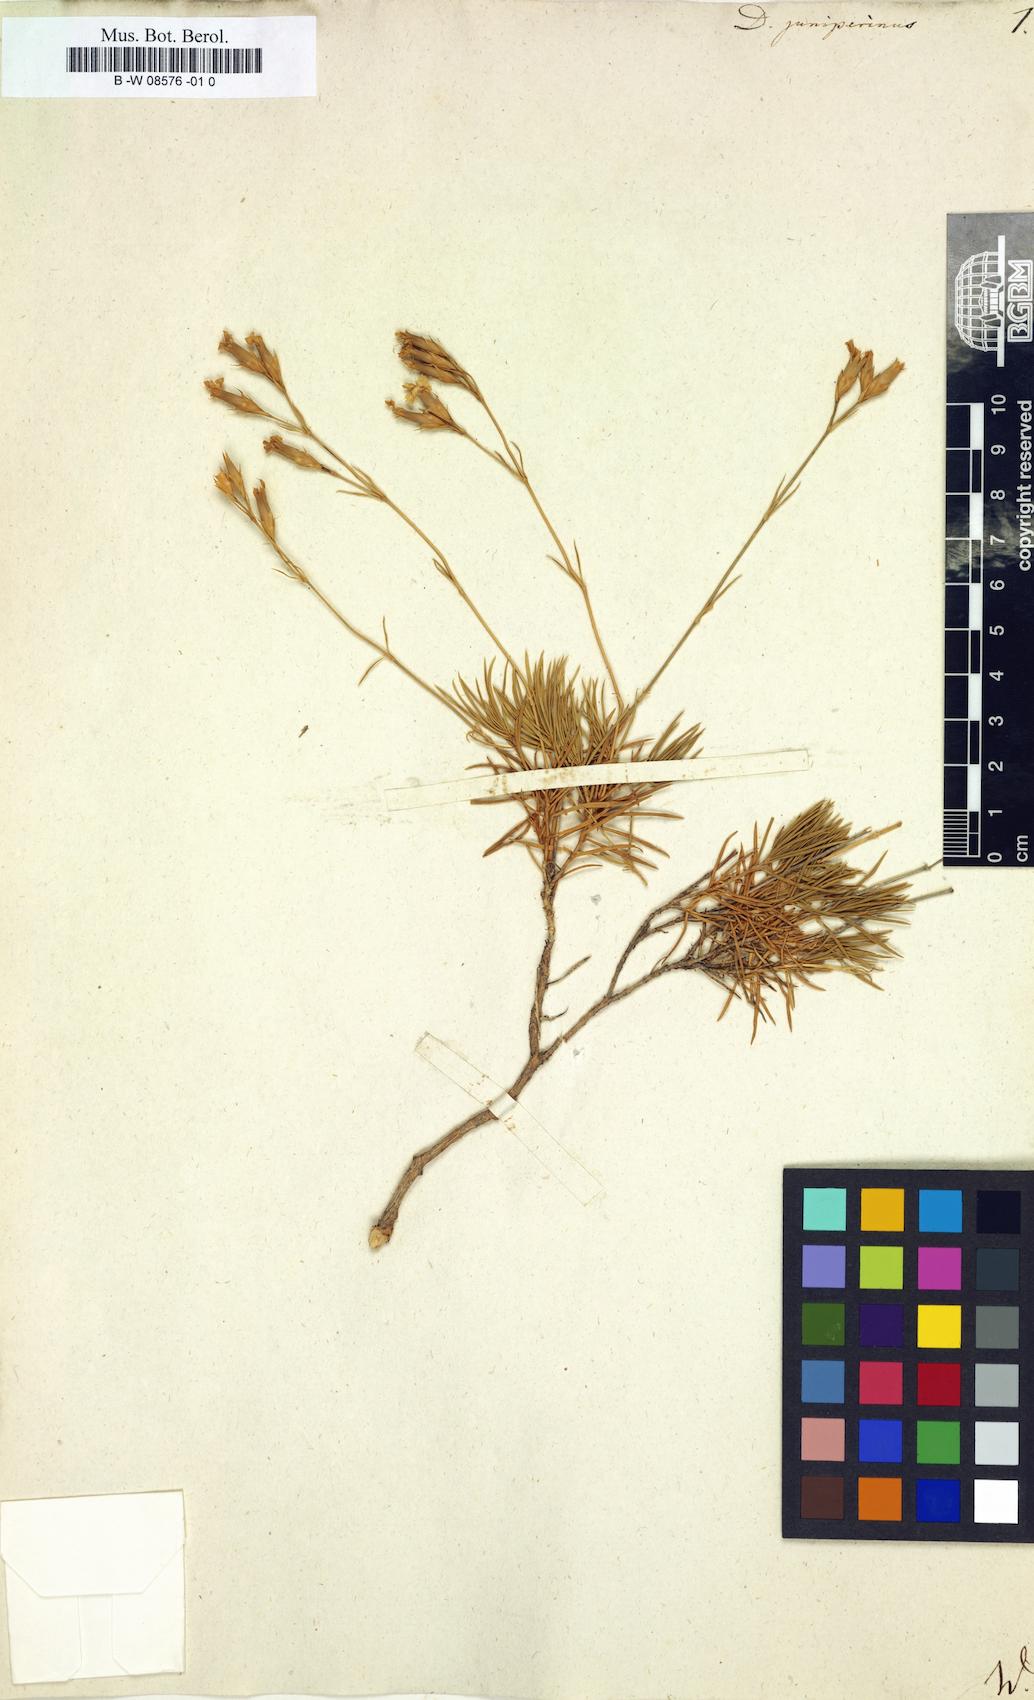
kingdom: Plantae
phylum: Tracheophyta
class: Magnoliopsida
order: Caryophyllales
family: Caryophyllaceae
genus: Dianthus
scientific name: Dianthus juniperinus
